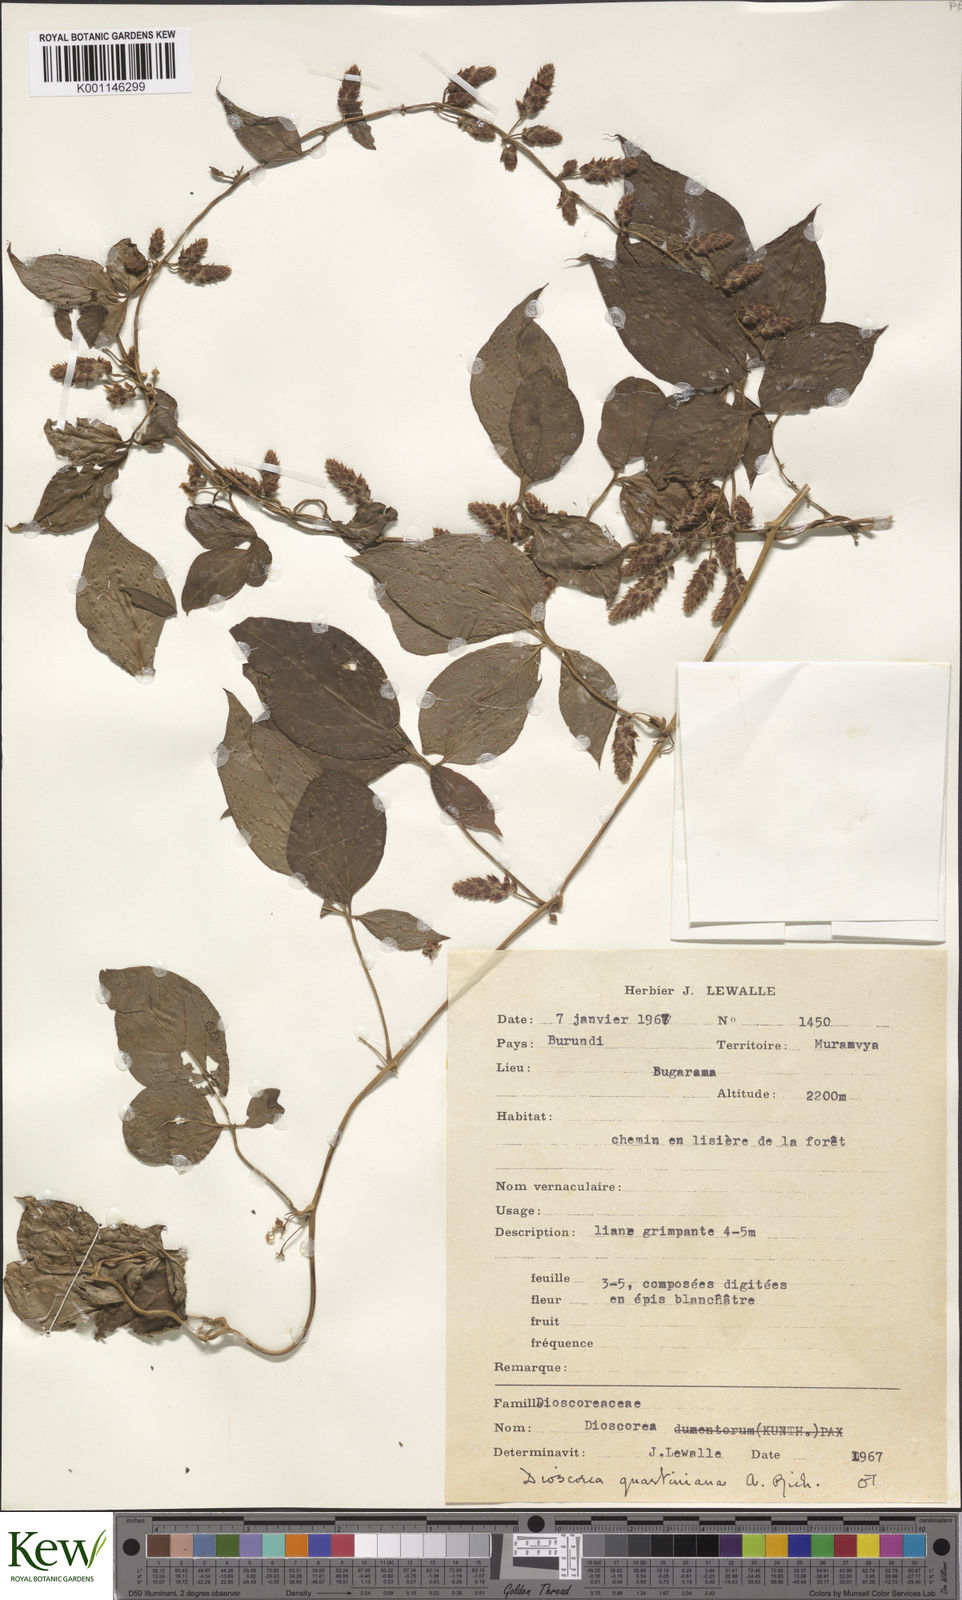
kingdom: Plantae
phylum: Tracheophyta
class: Liliopsida
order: Dioscoreales
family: Dioscoreaceae
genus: Dioscorea
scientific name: Dioscorea quartiniana
